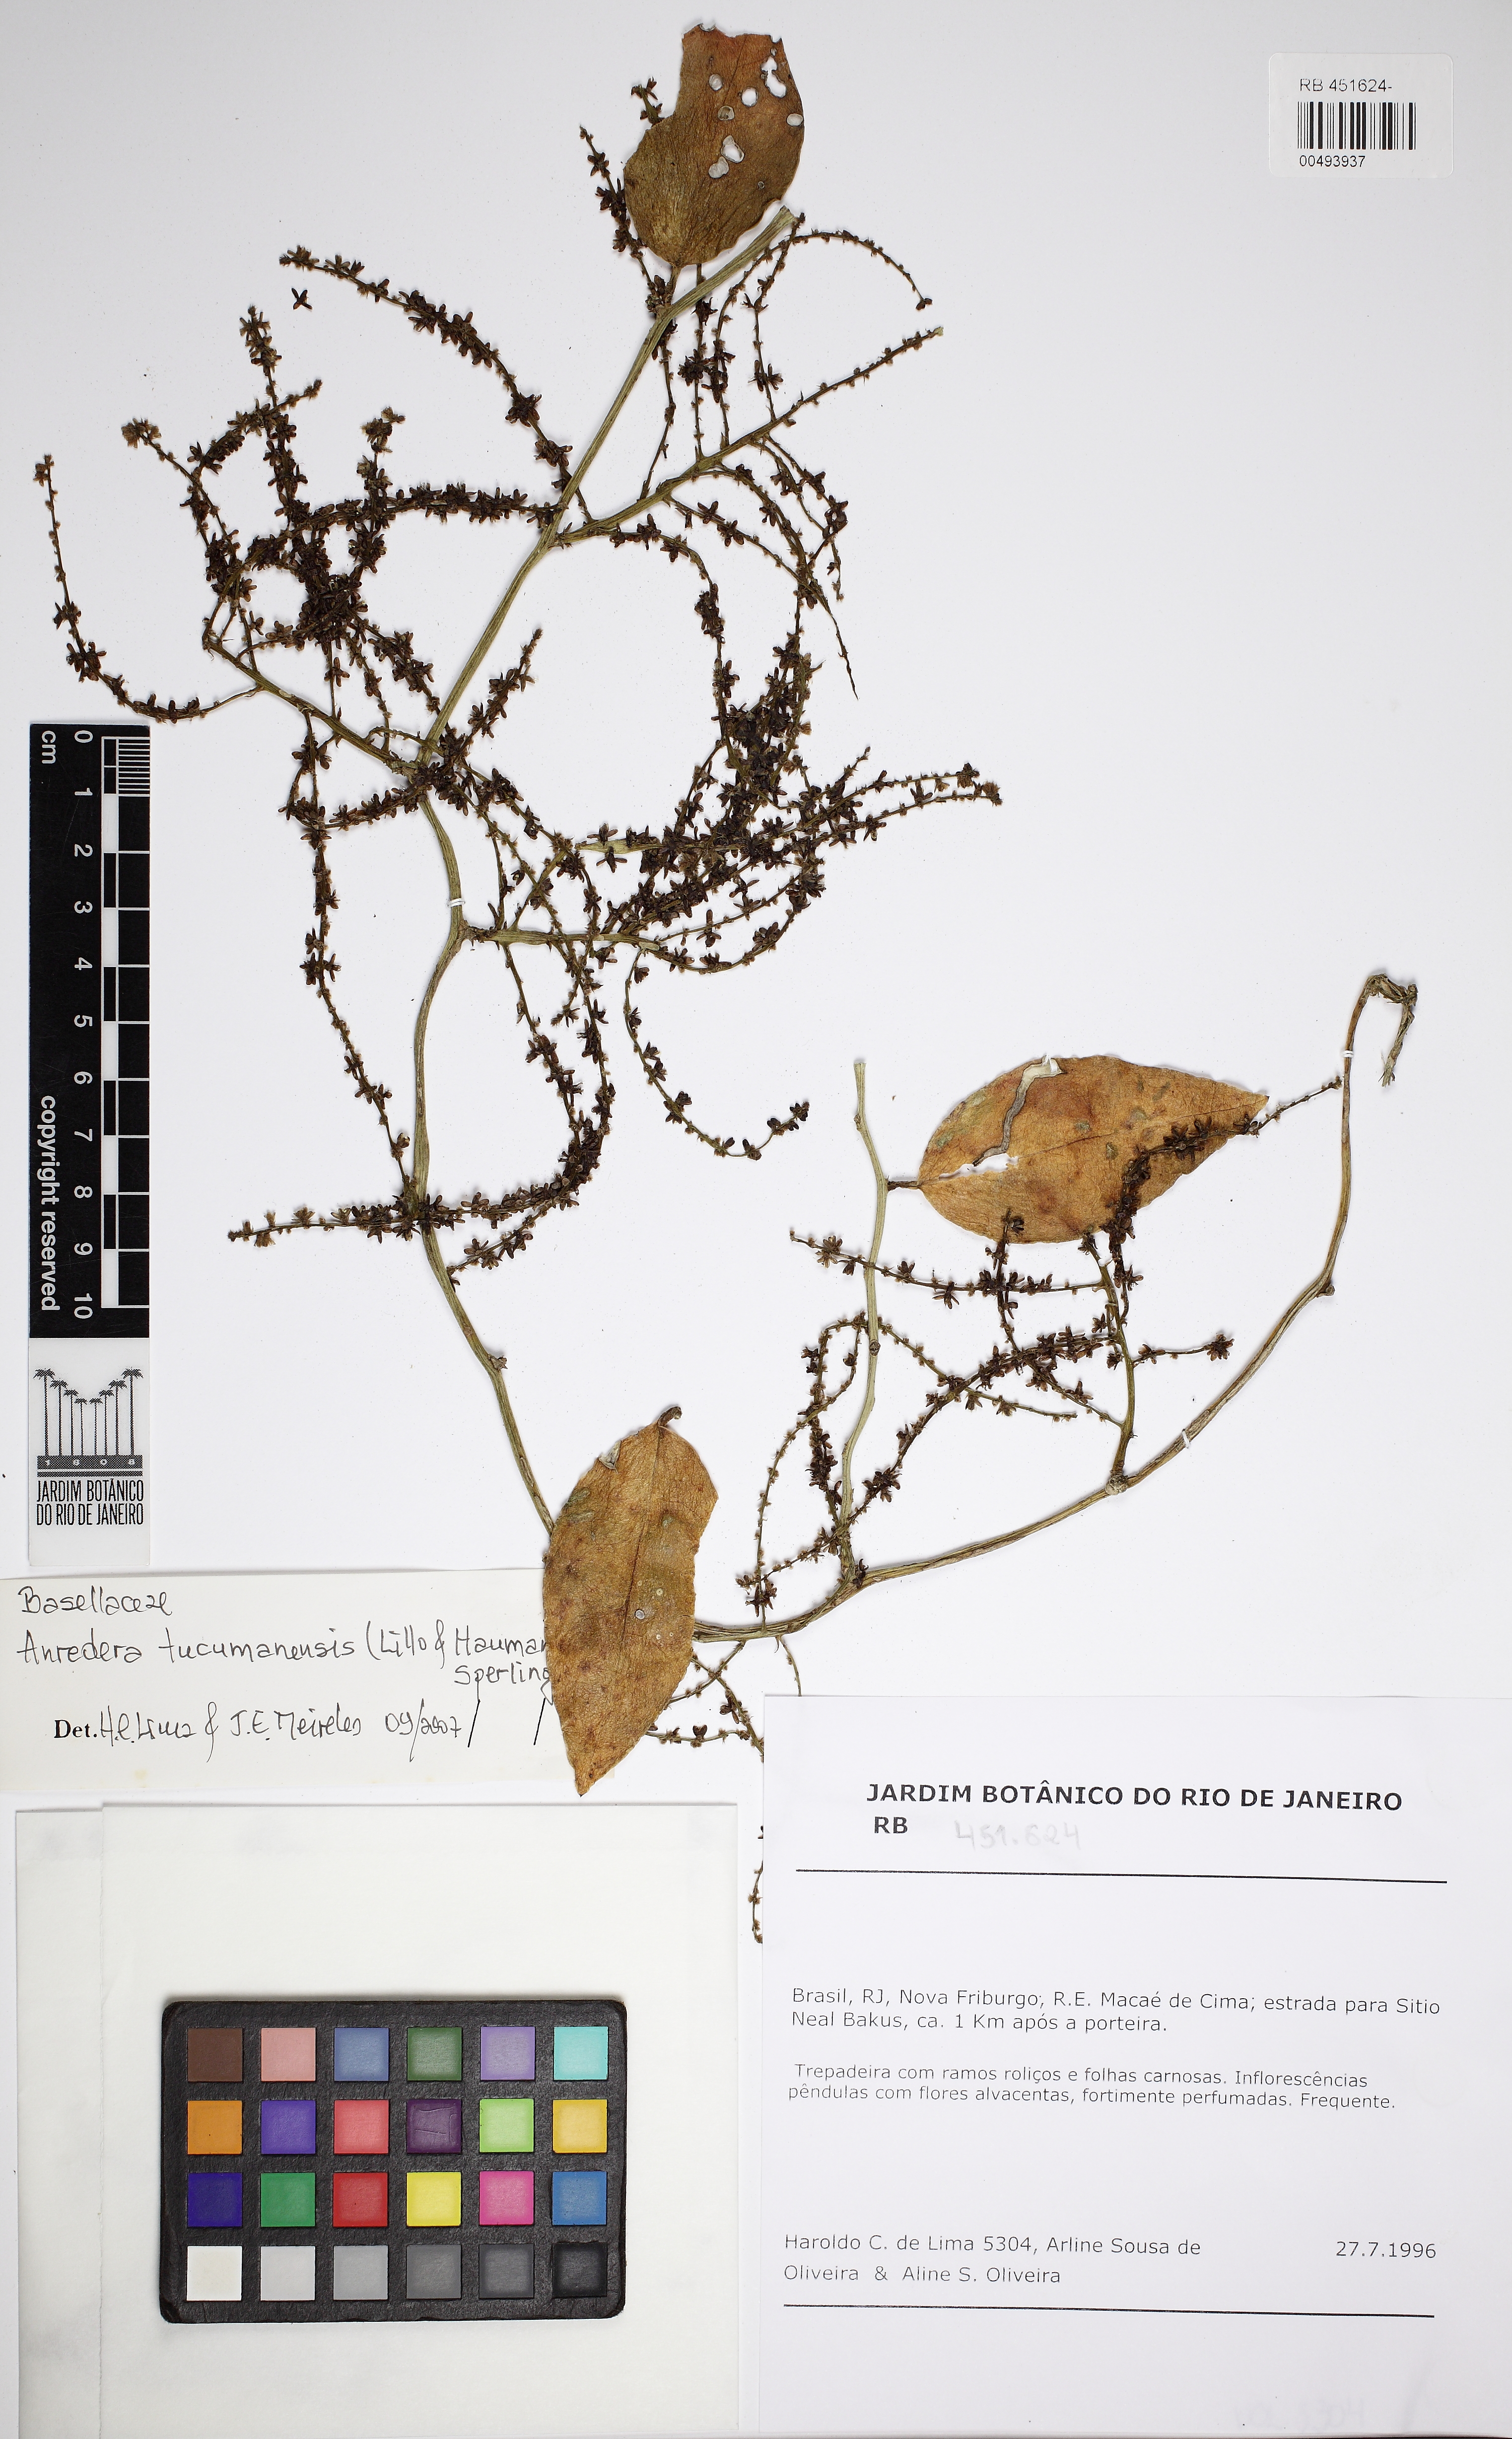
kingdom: Plantae
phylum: Tracheophyta
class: Magnoliopsida
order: Caryophyllales
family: Basellaceae
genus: Anredera
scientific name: Anredera tucumanensis
